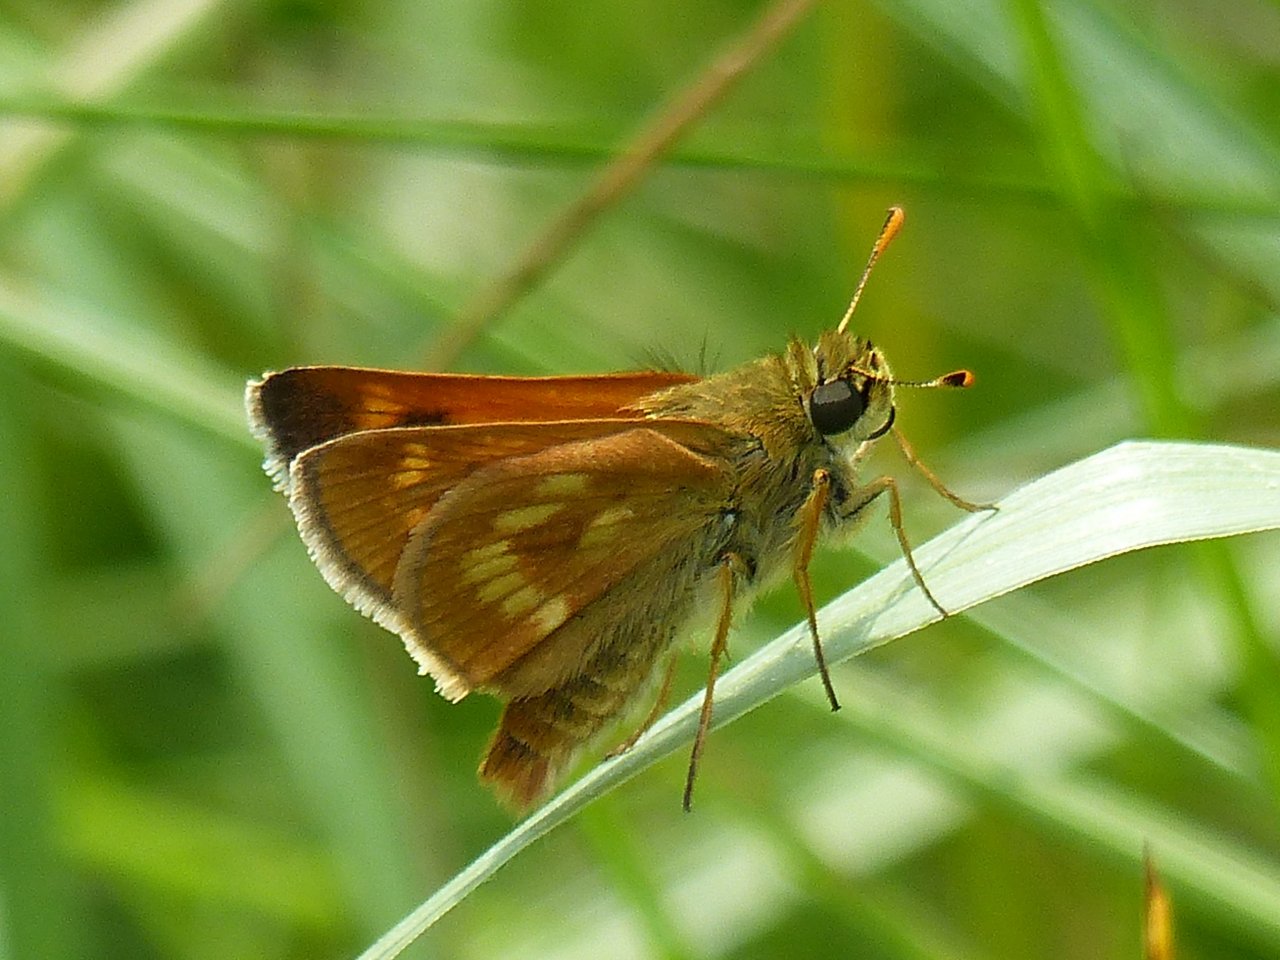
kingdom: Animalia
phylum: Arthropoda
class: Insecta
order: Lepidoptera
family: Hesperiidae
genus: Polites
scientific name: Polites
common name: Long Dash Skipper
